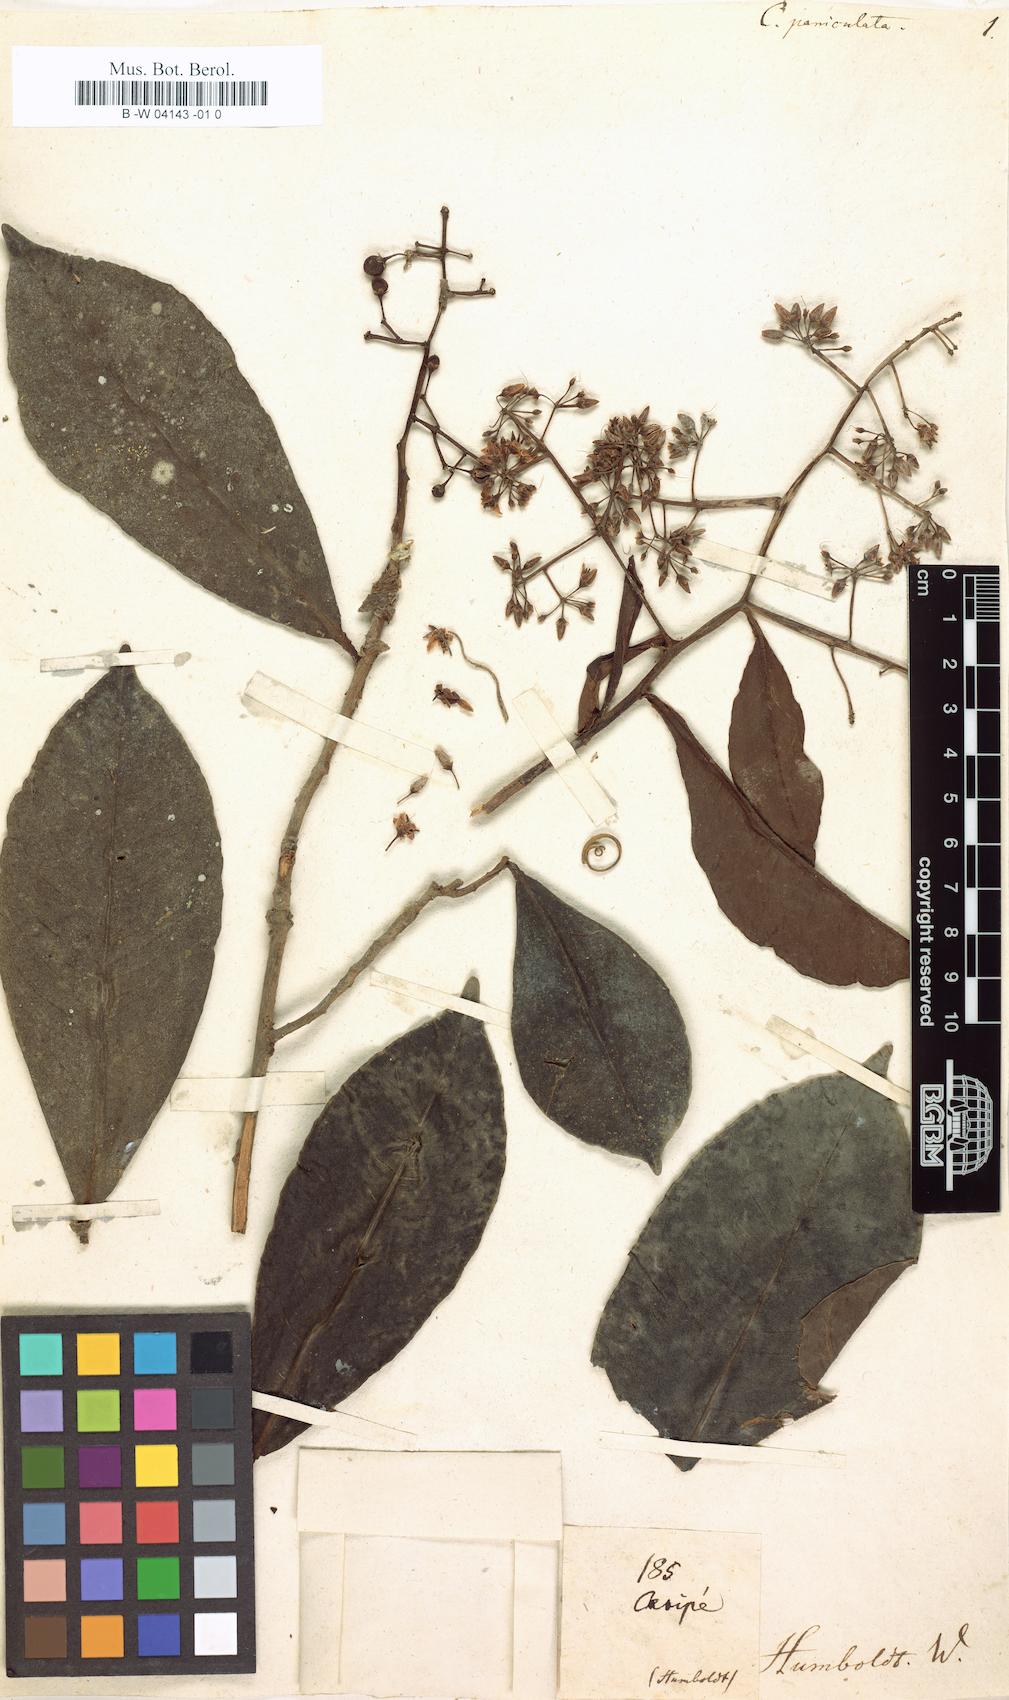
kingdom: Plantae
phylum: Tracheophyta
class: Magnoliopsida
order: Gentianales
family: Rubiaceae
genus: Palicourea
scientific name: Palicourea paniculata
